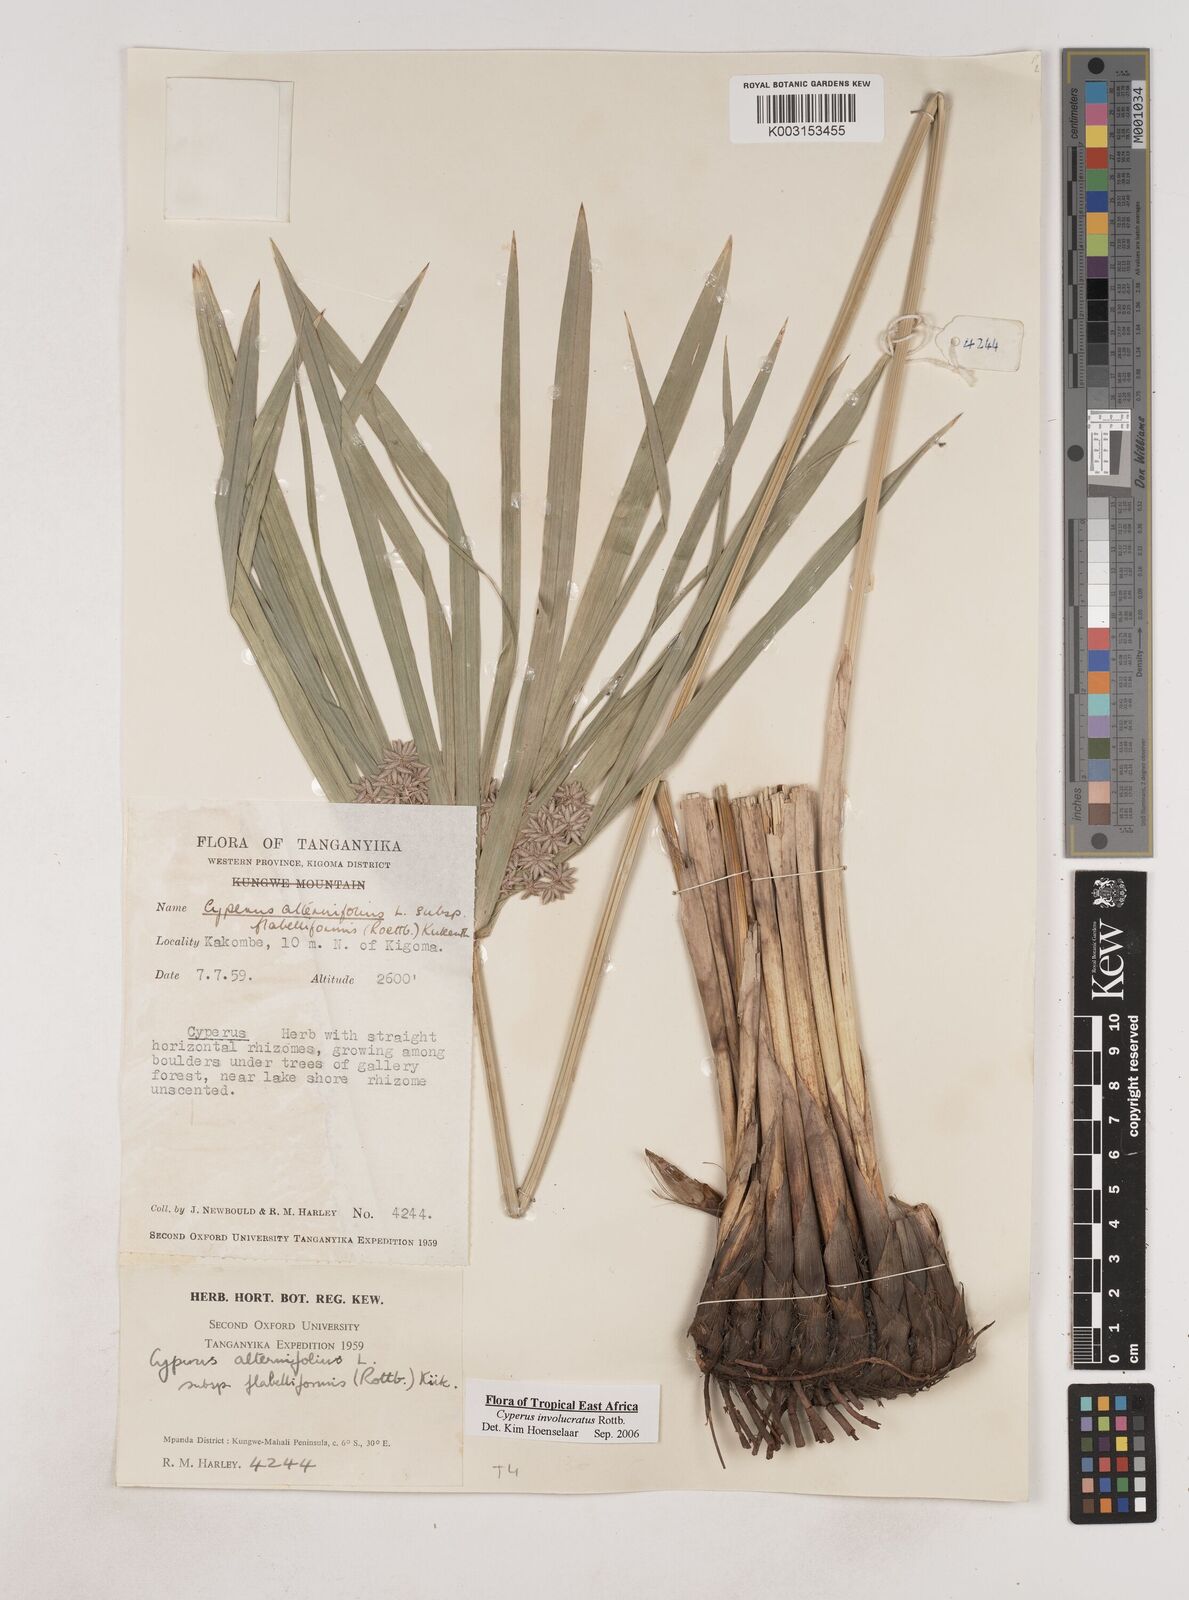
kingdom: Plantae
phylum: Tracheophyta
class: Liliopsida
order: Poales
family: Cyperaceae
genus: Cyperus
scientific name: Cyperus alternifolius
